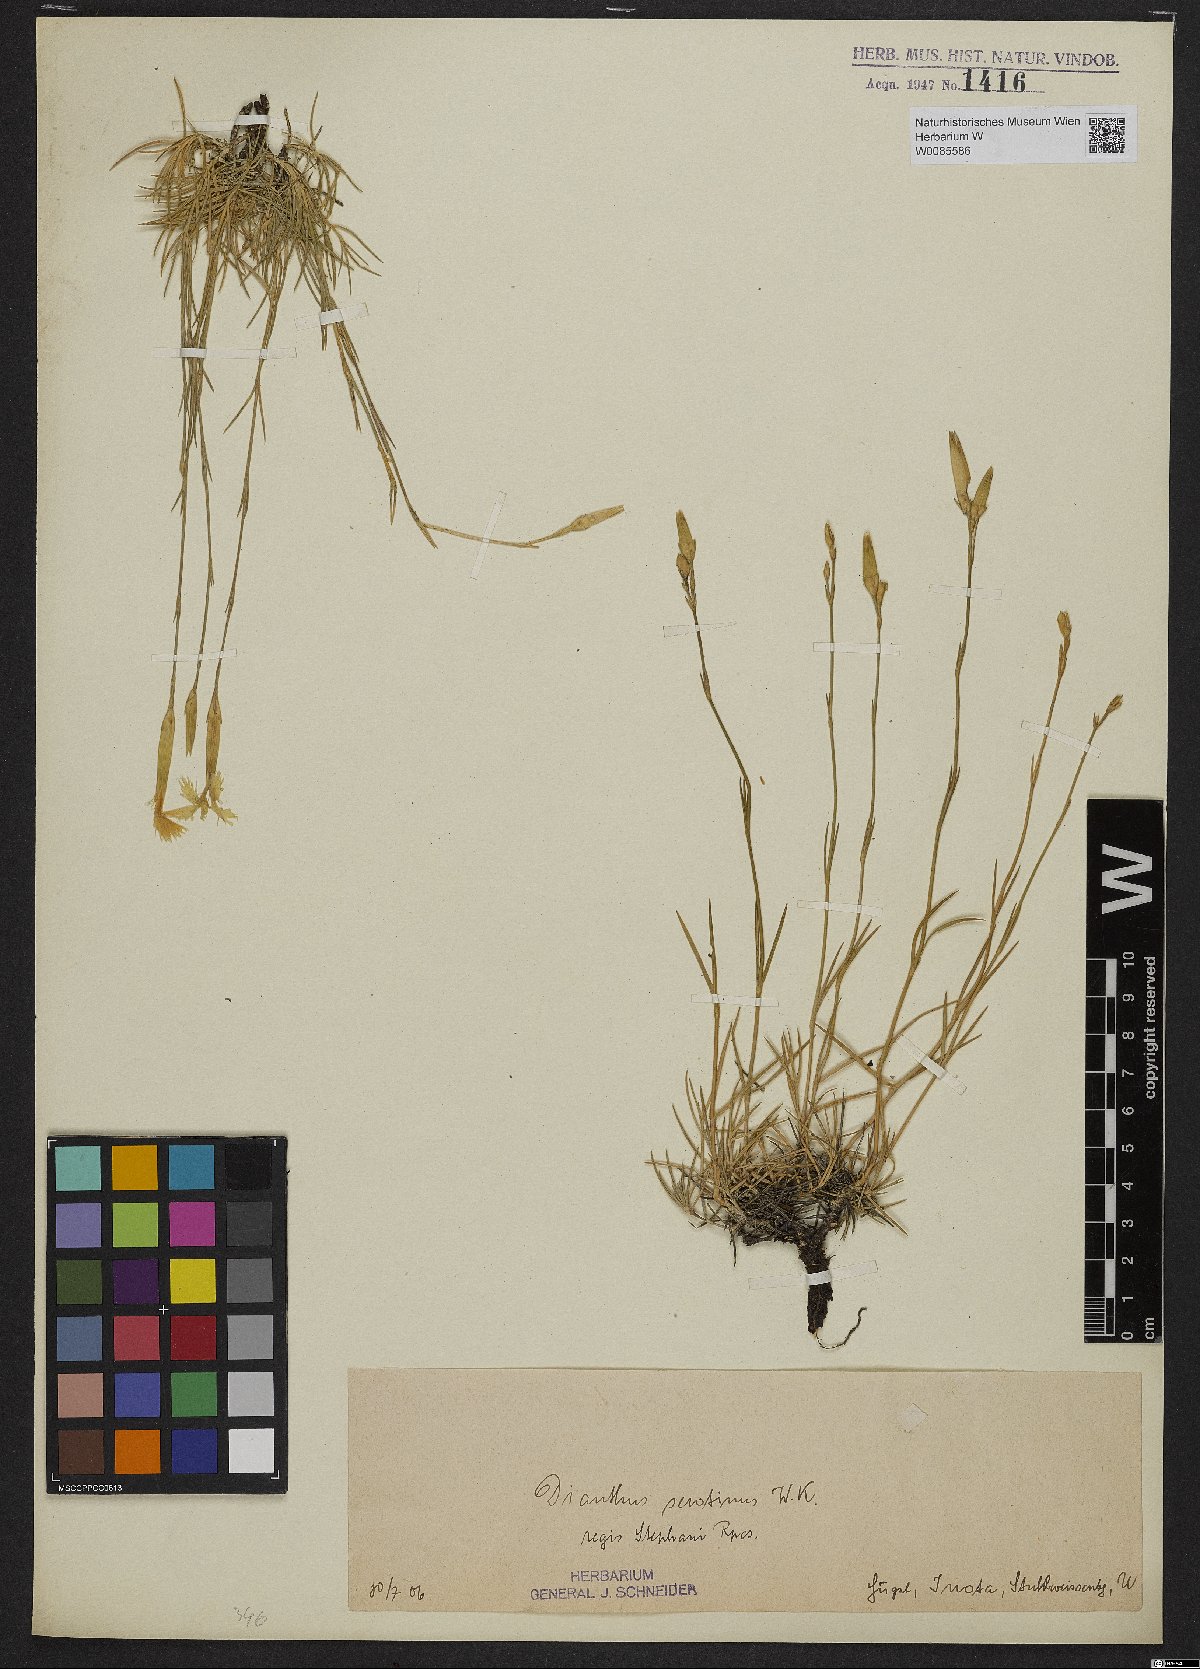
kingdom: Plantae
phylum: Tracheophyta
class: Magnoliopsida
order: Caryophyllales
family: Caryophyllaceae
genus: Dianthus
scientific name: Dianthus plumarius
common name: Pink
